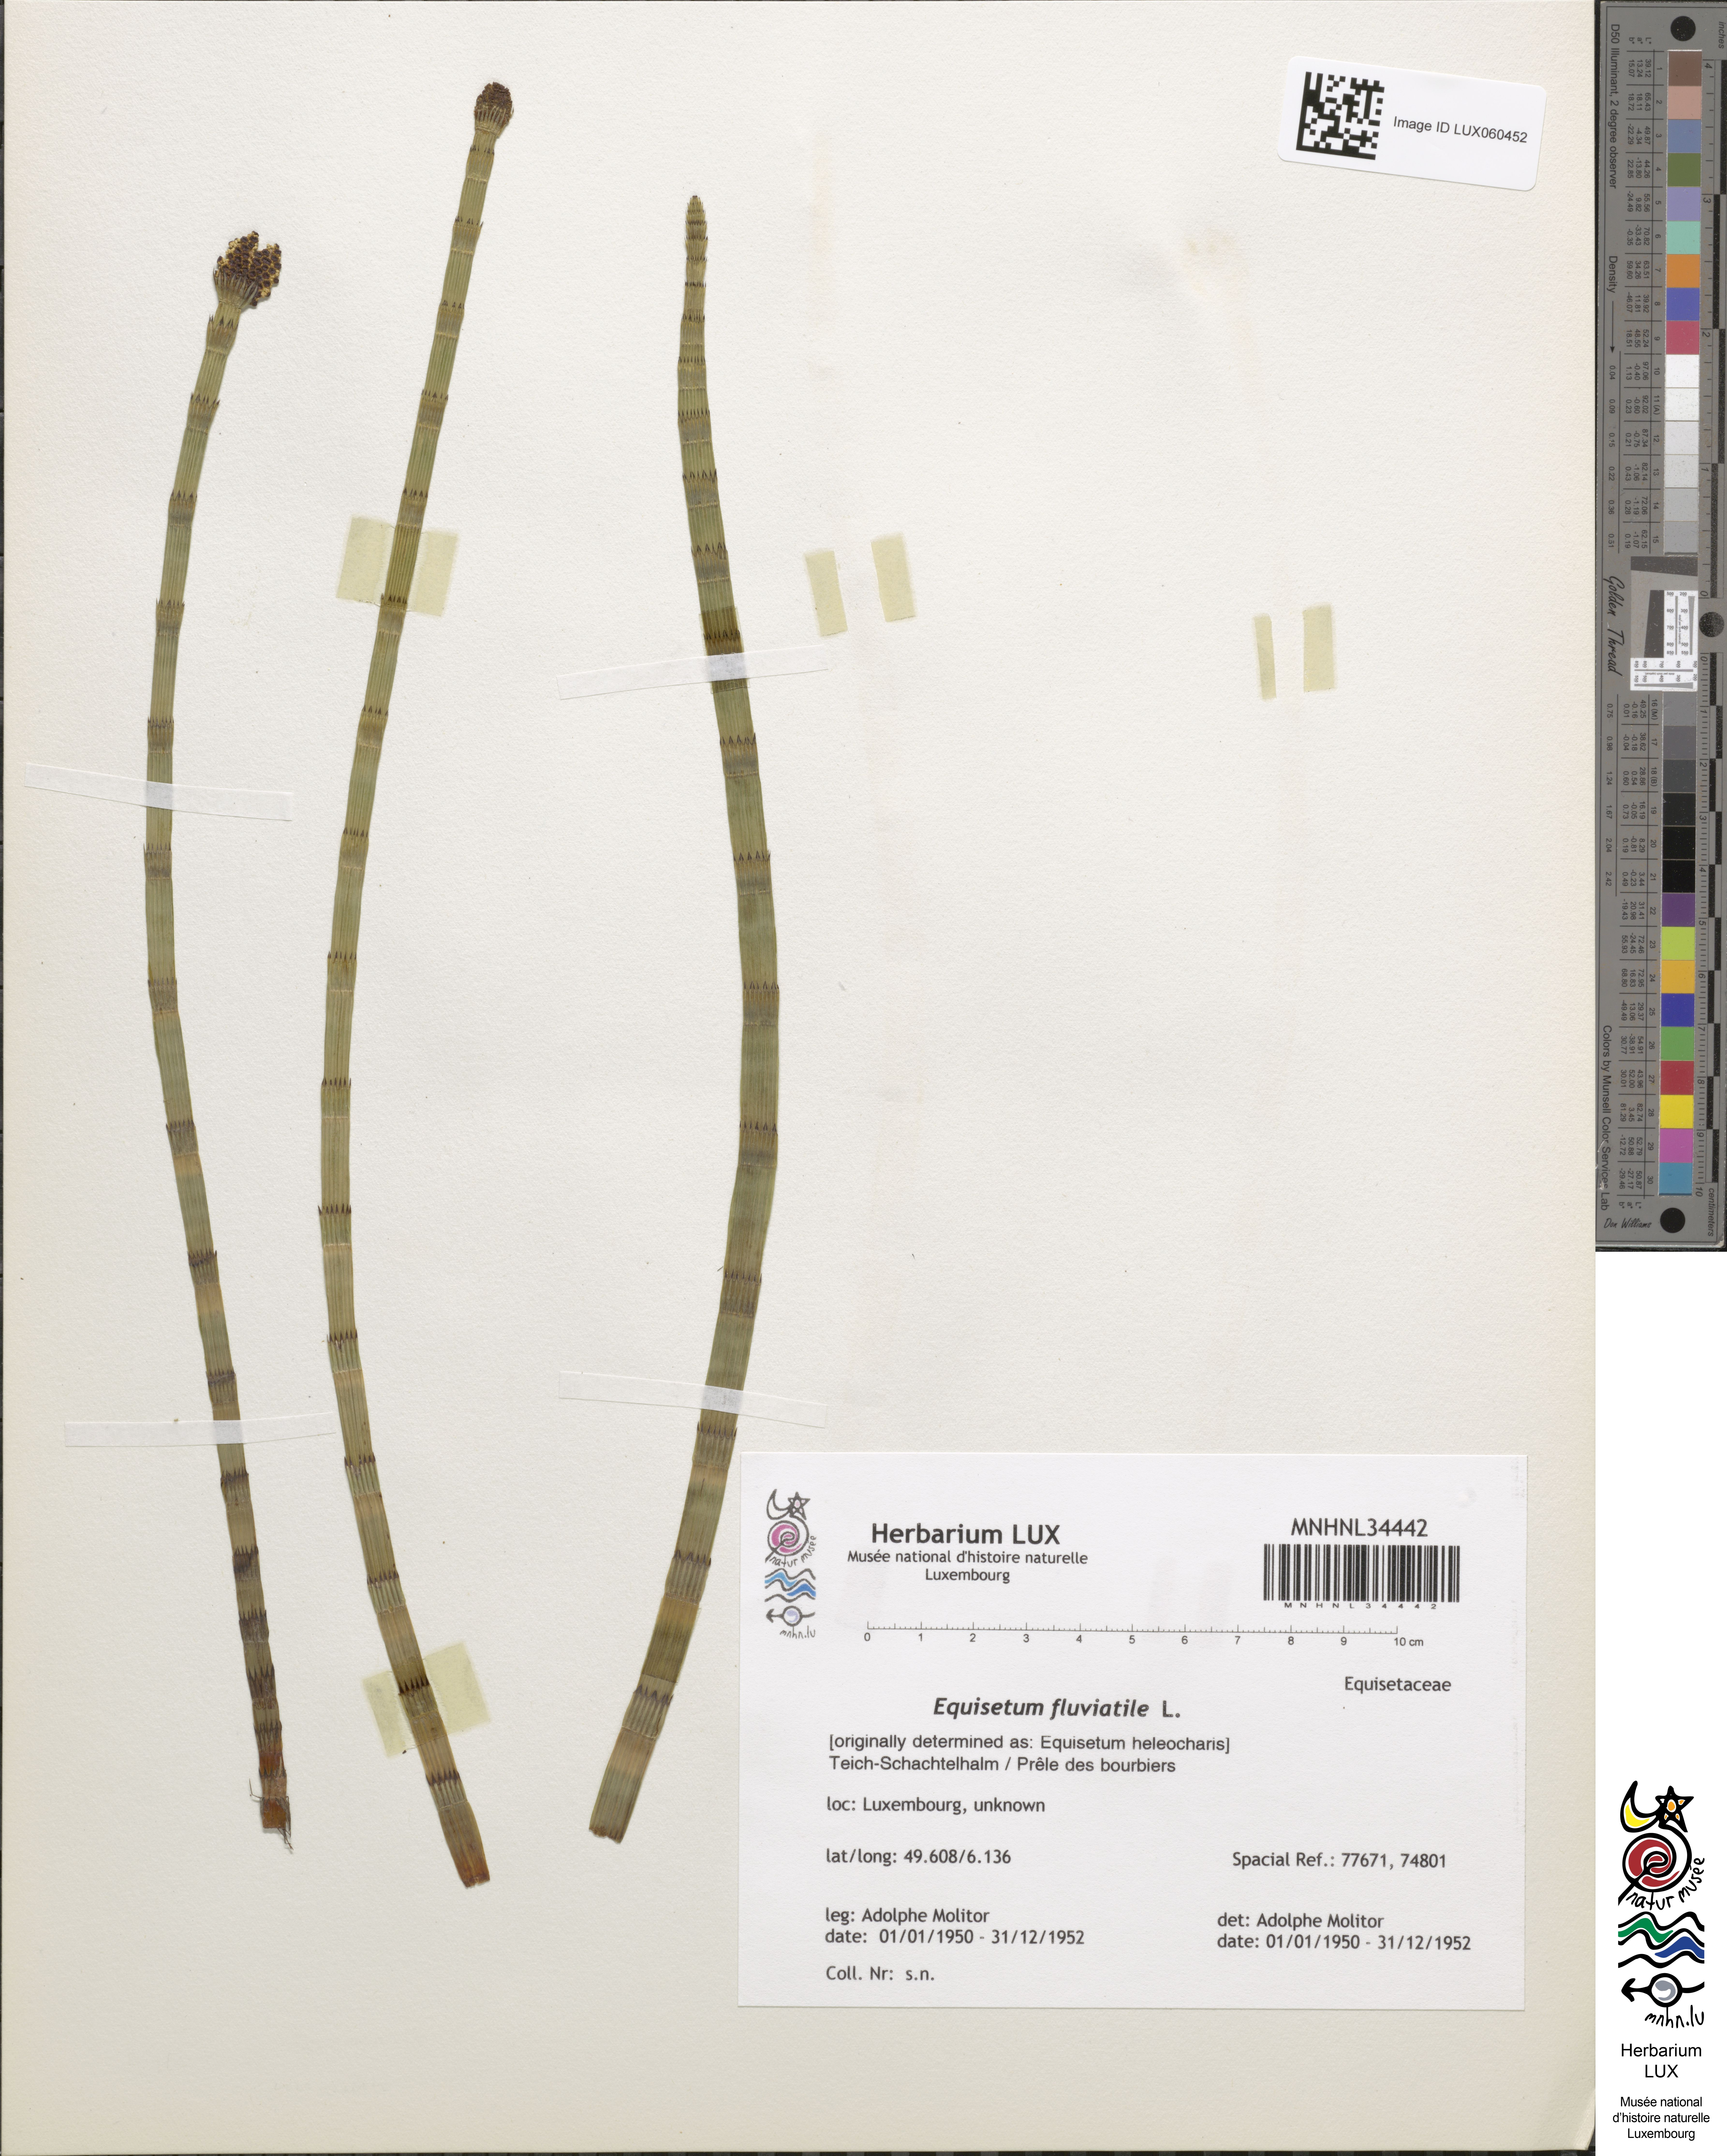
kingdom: Plantae
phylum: Tracheophyta
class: Polypodiopsida
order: Equisetales
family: Equisetaceae
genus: Equisetum
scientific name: Equisetum fluviatile
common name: Water horsetail
